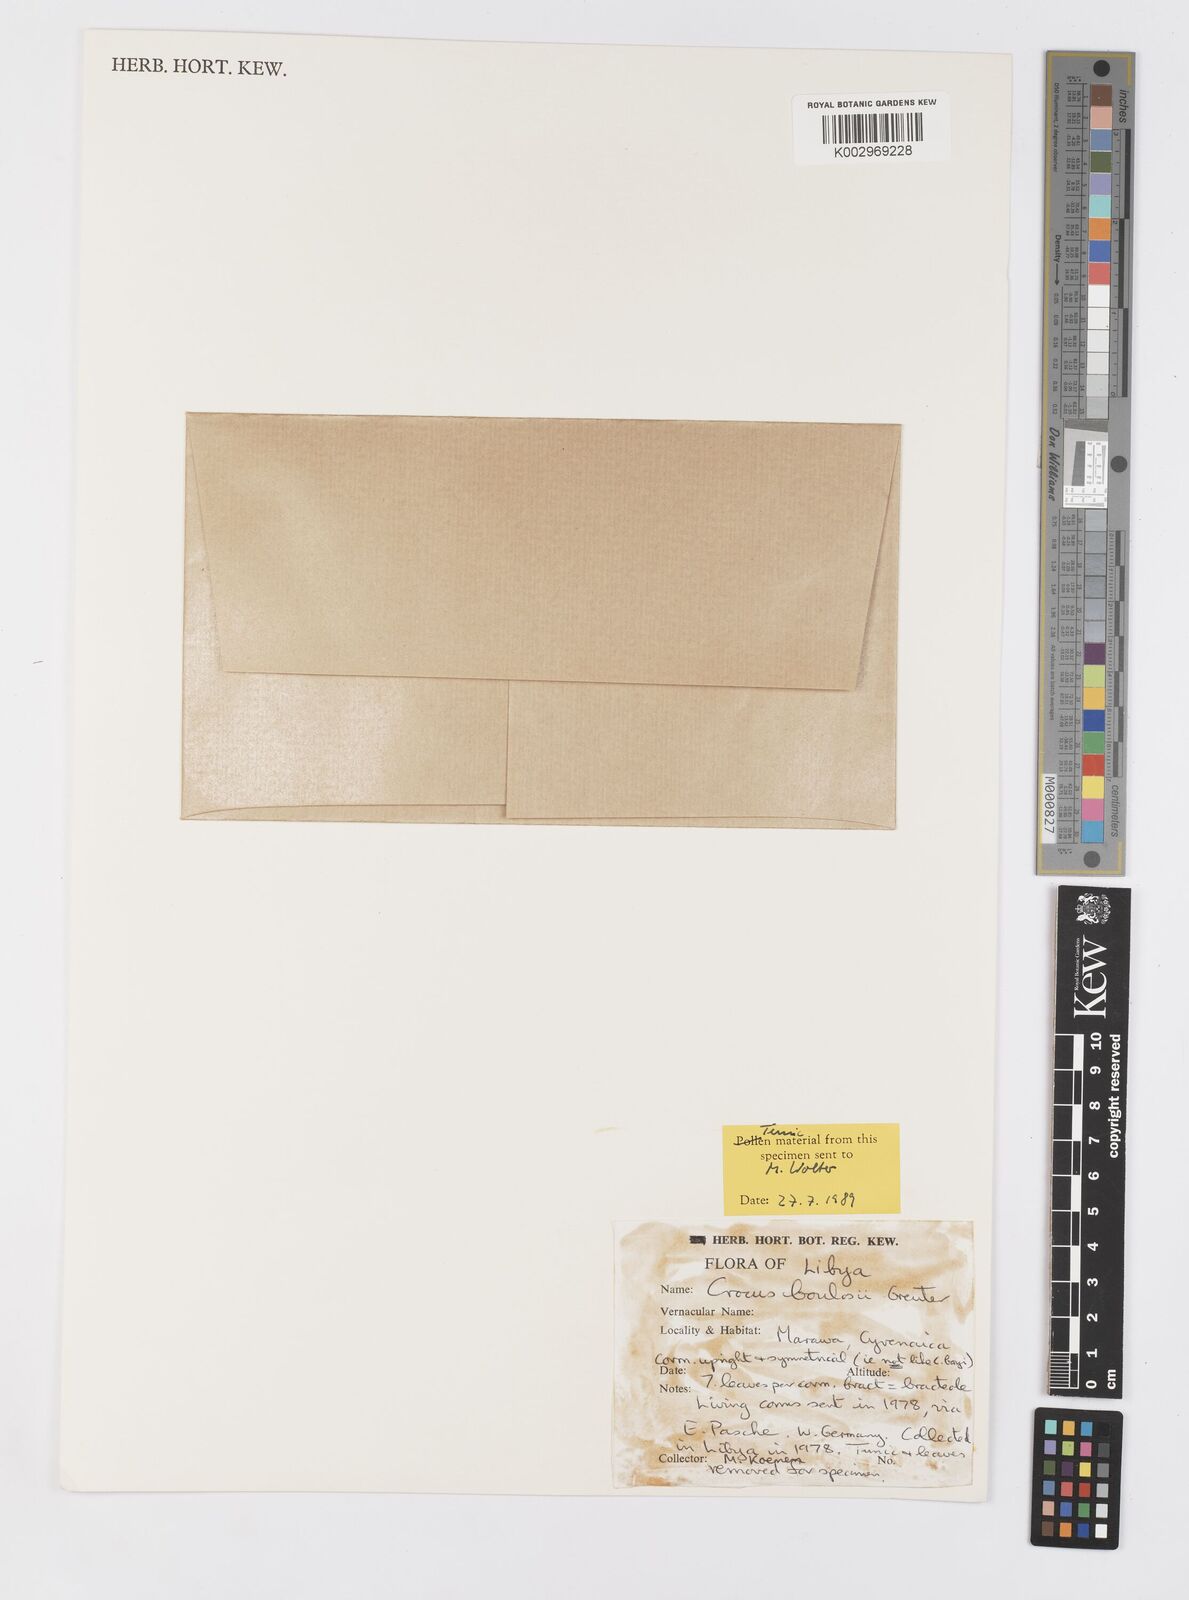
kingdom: Plantae
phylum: Tracheophyta
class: Liliopsida
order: Asparagales
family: Iridaceae
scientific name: Iridaceae
